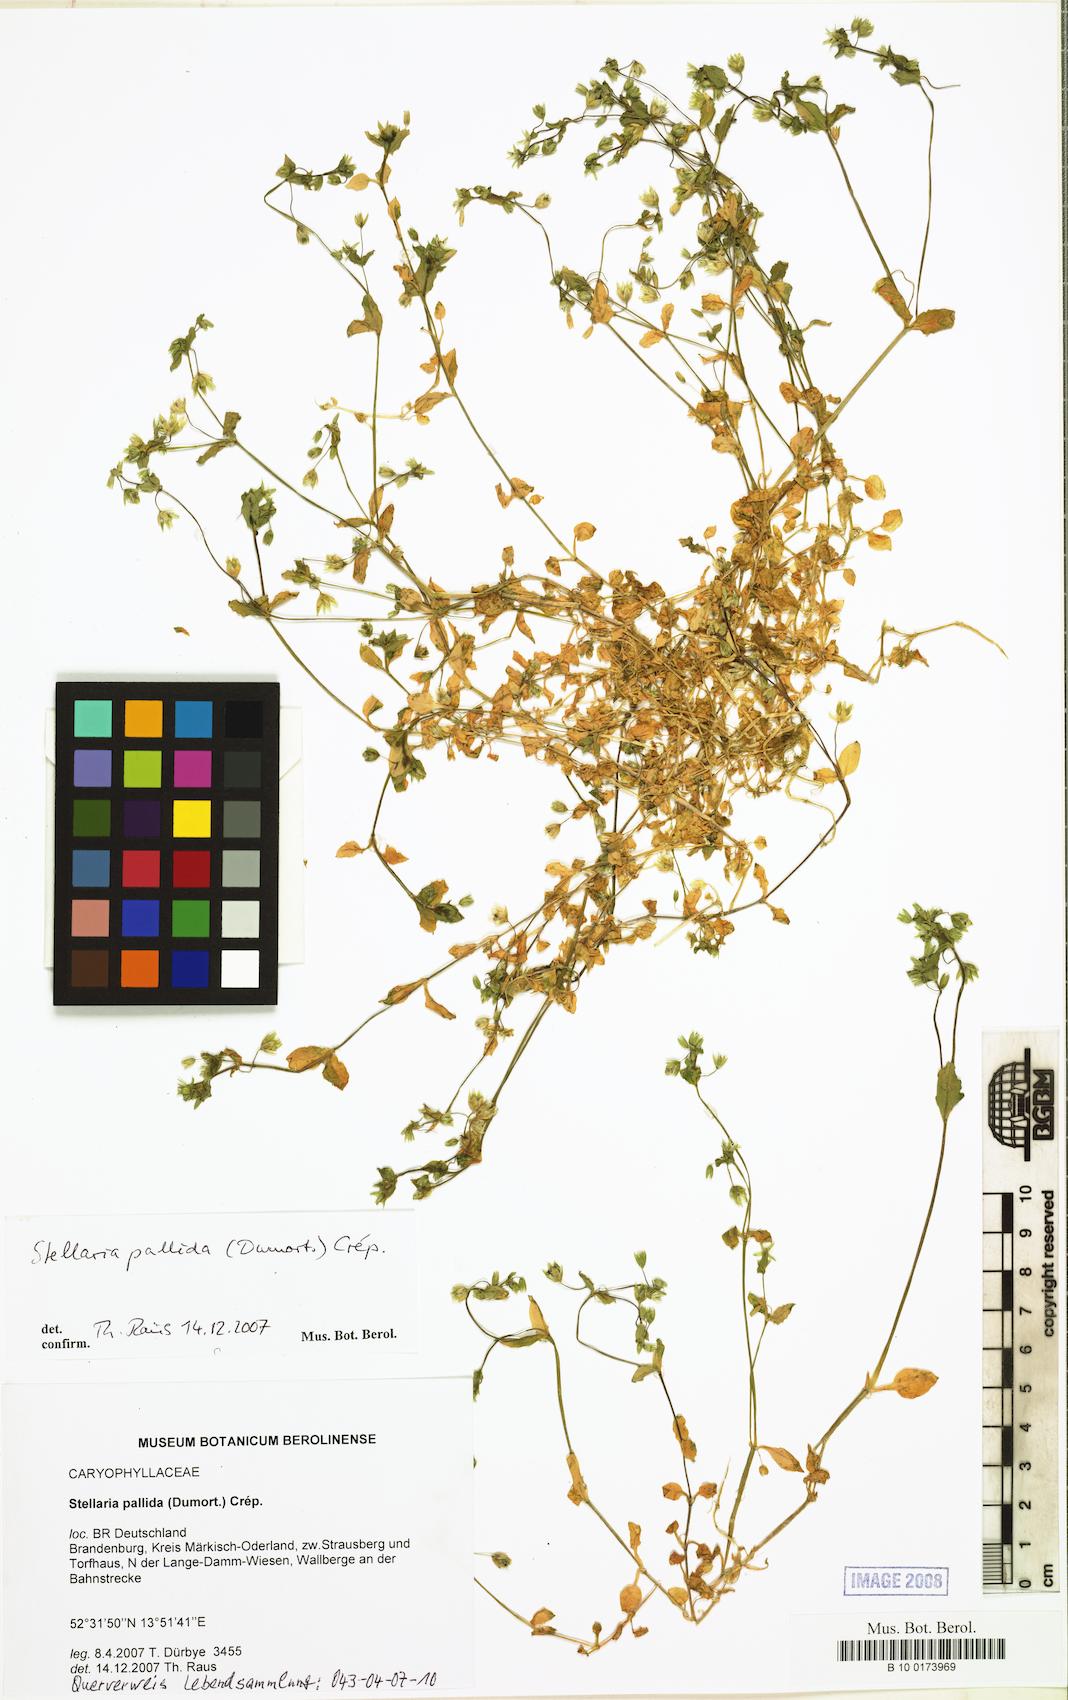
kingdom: Plantae
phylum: Tracheophyta
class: Magnoliopsida
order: Caryophyllales
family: Caryophyllaceae
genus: Stellaria
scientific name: Stellaria apetala
